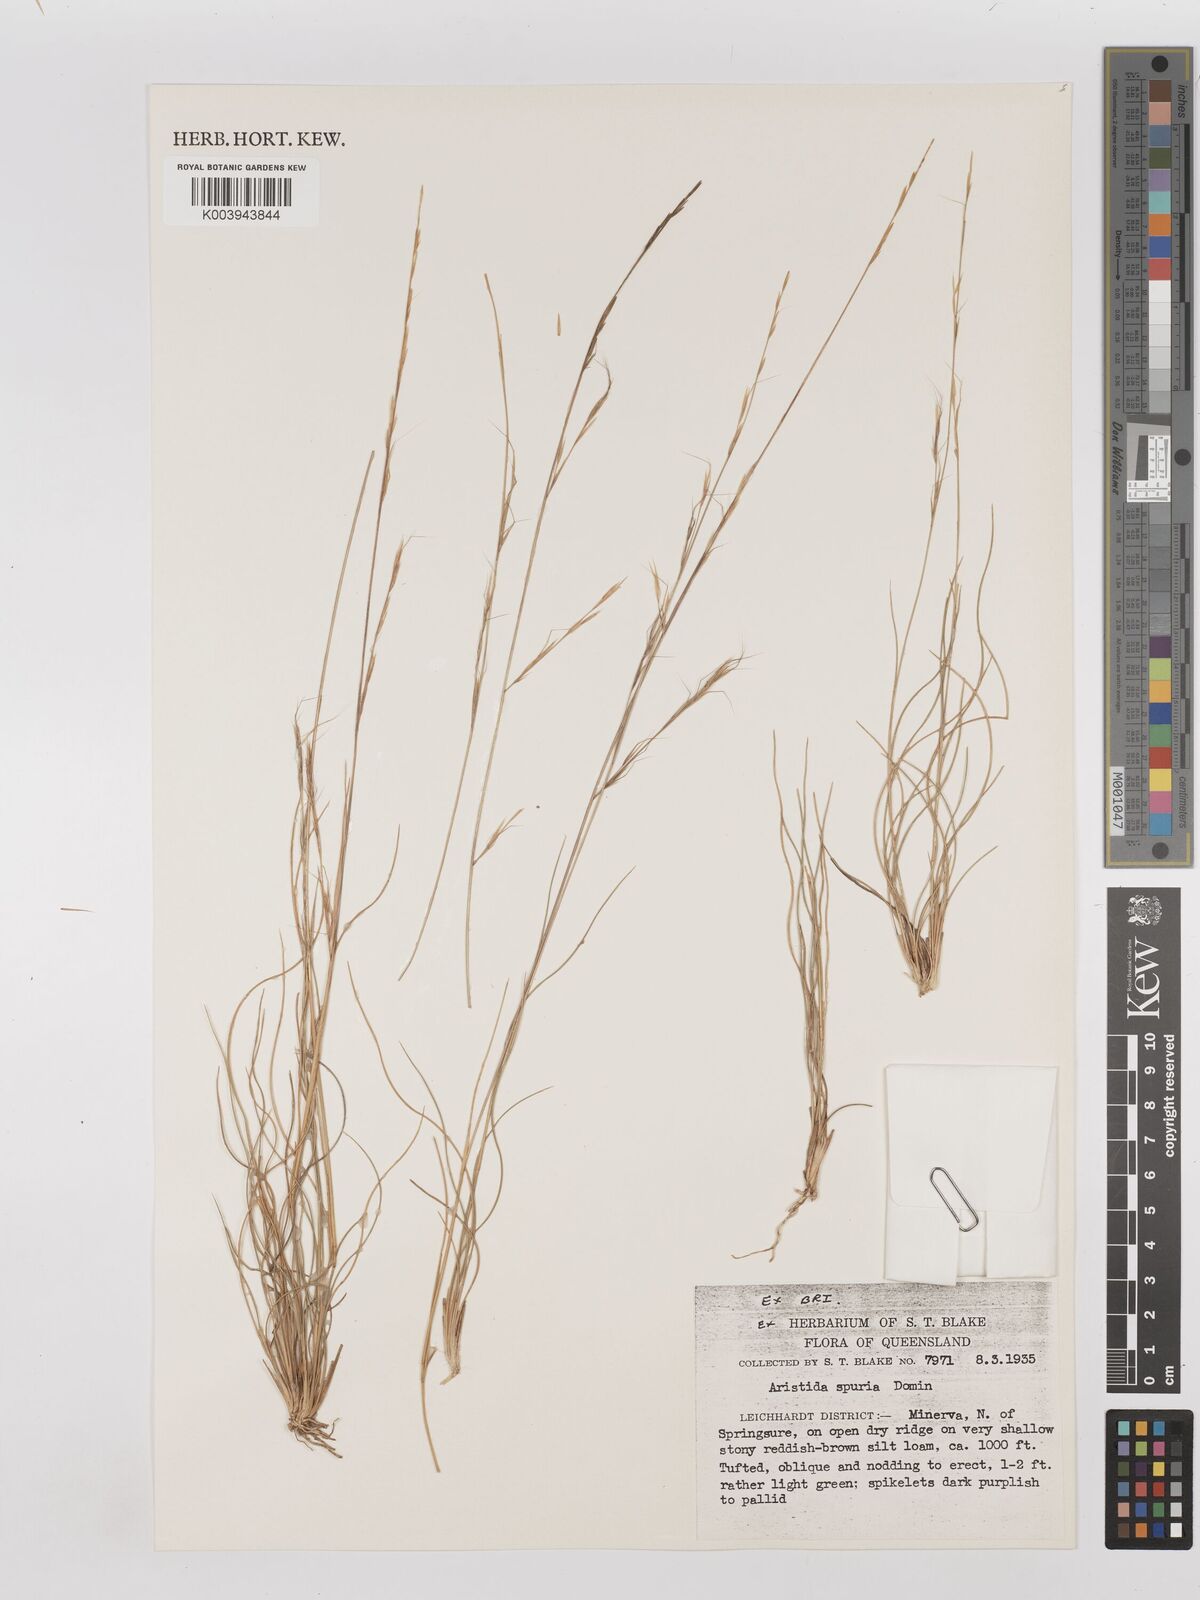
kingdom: Plantae
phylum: Tracheophyta
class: Liliopsida
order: Poales
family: Poaceae
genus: Aristida
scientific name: Aristida spuria
